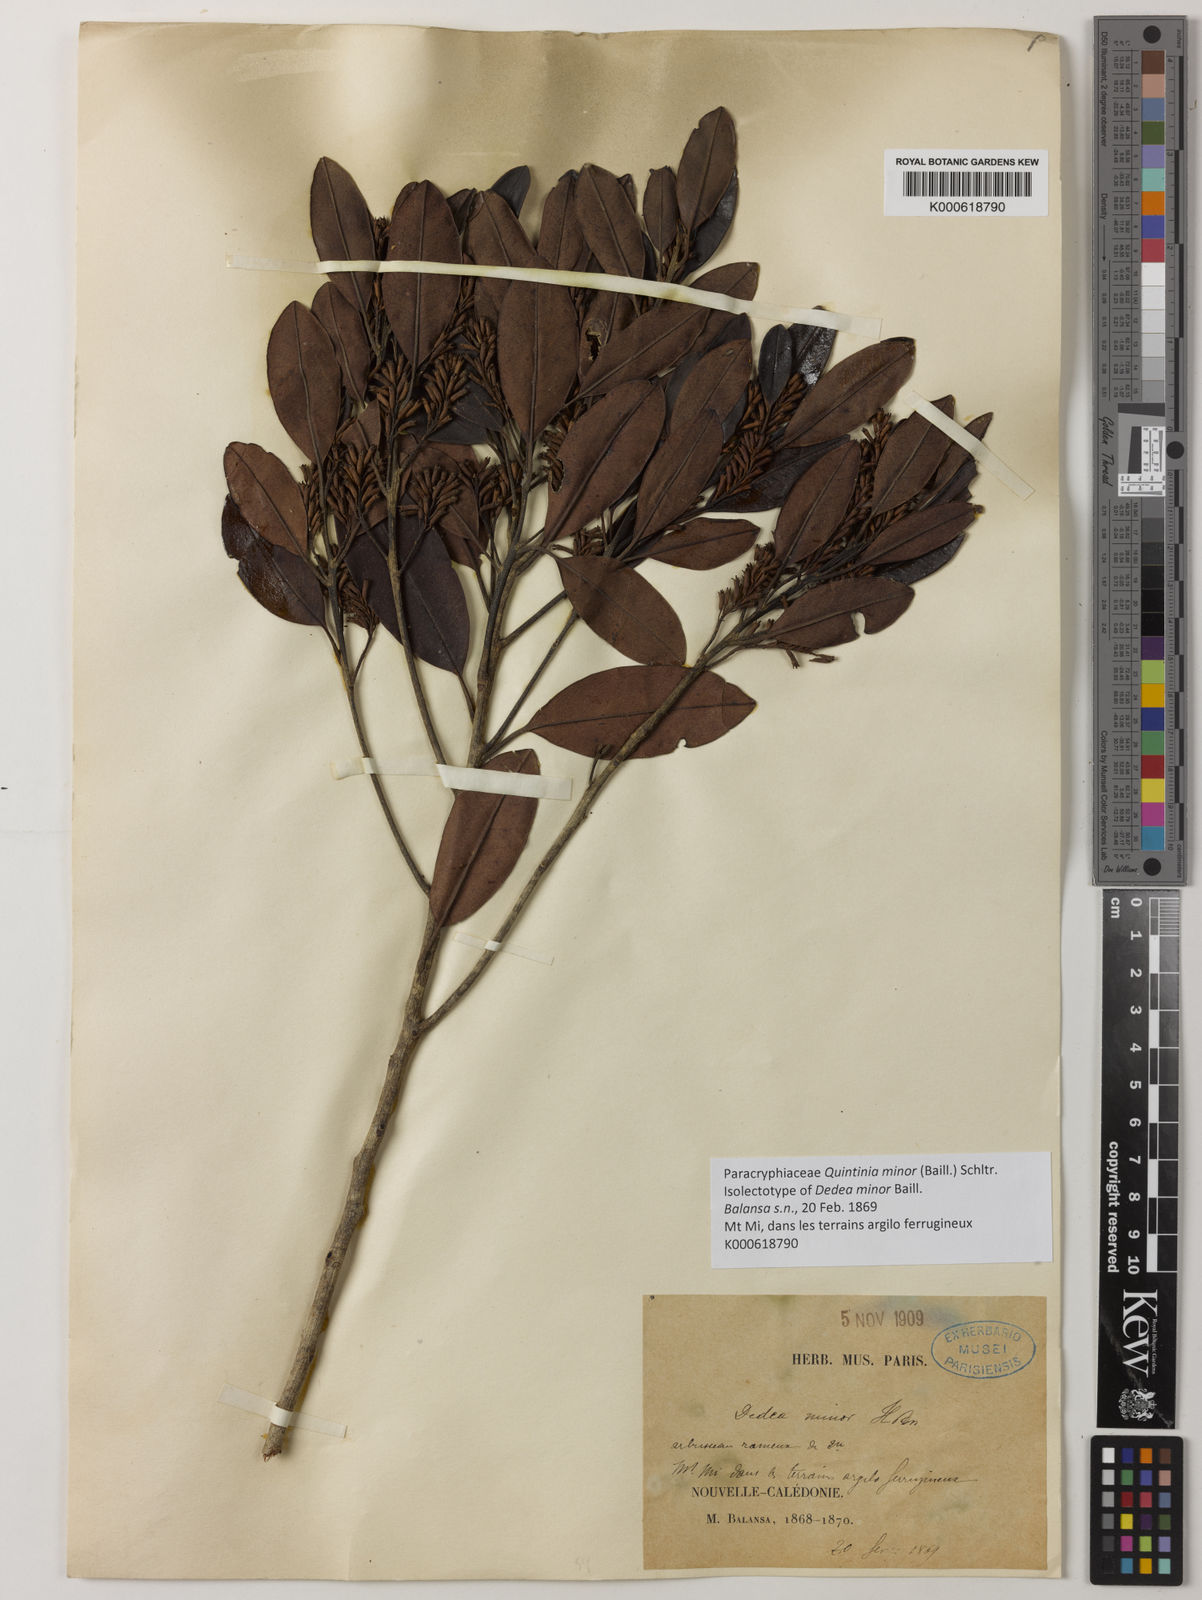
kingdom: Plantae
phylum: Tracheophyta
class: Magnoliopsida
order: Paracryphiales
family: Paracryphiaceae
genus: Quintinia
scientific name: Quintinia minor
